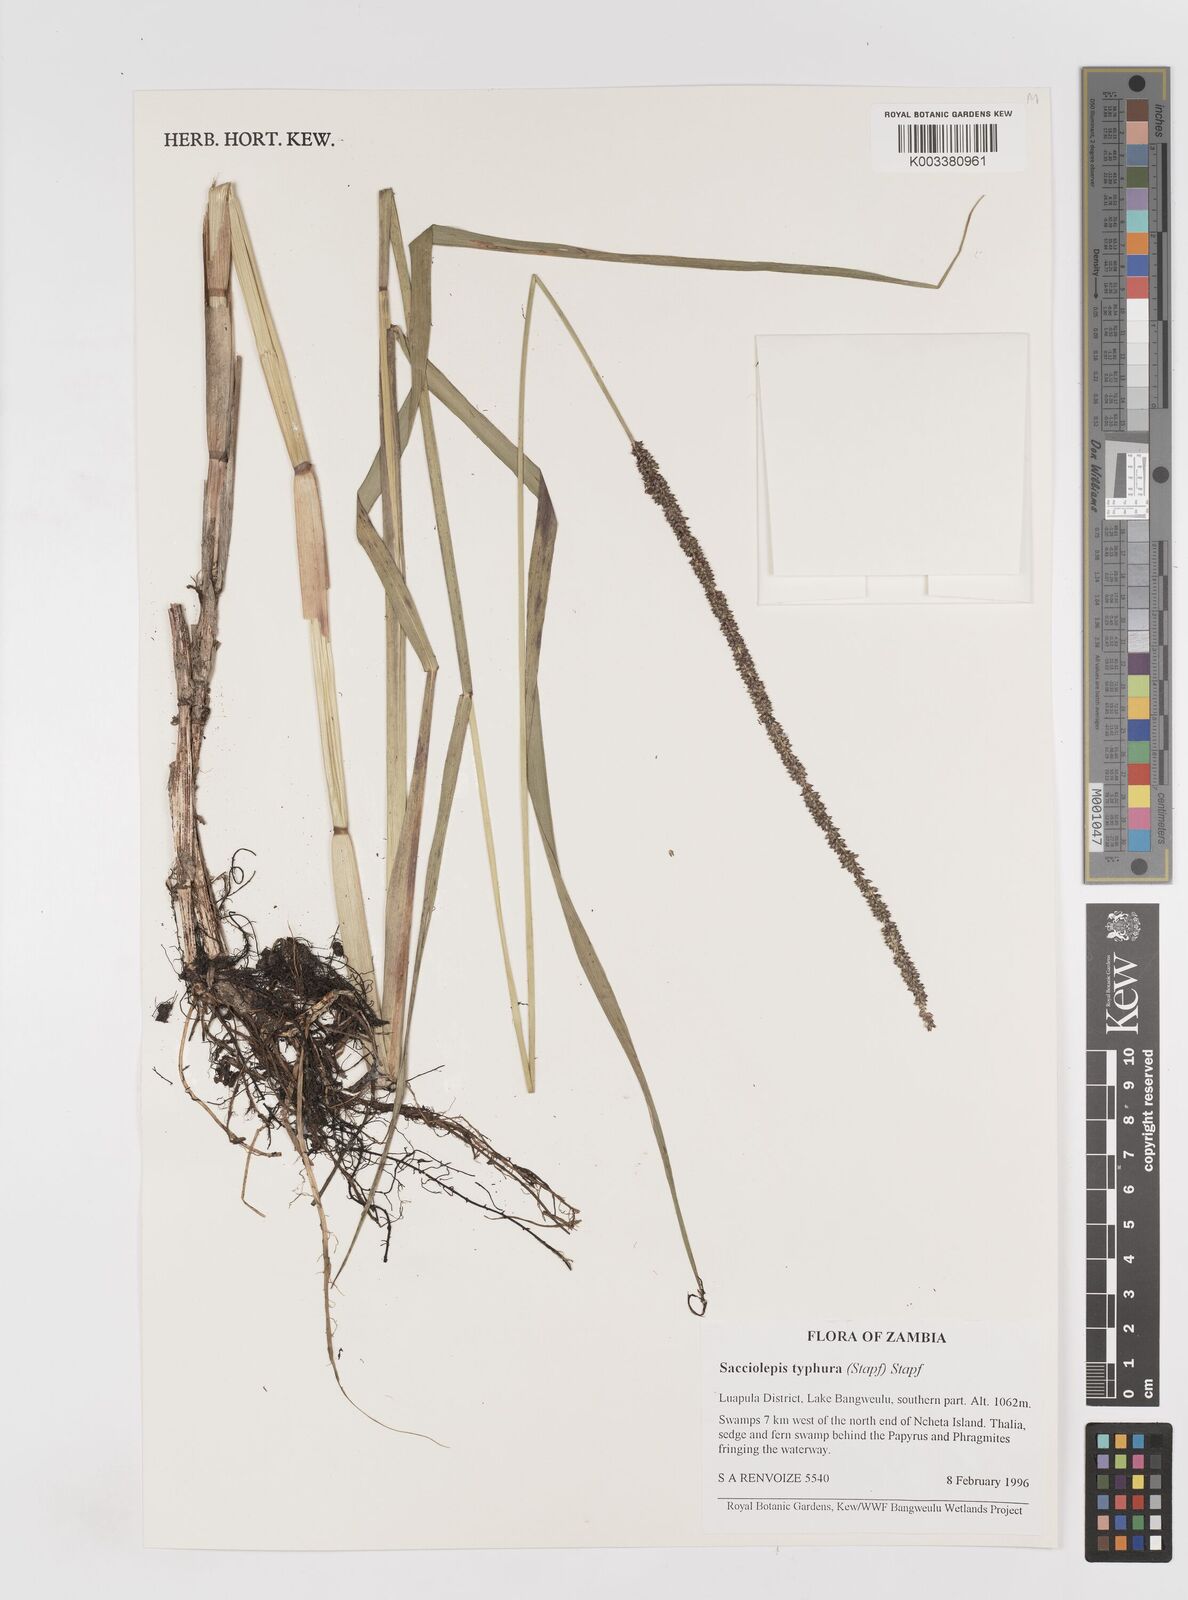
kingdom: Plantae
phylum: Tracheophyta
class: Liliopsida
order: Poales
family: Poaceae
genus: Sacciolepis
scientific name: Sacciolepis typhura
